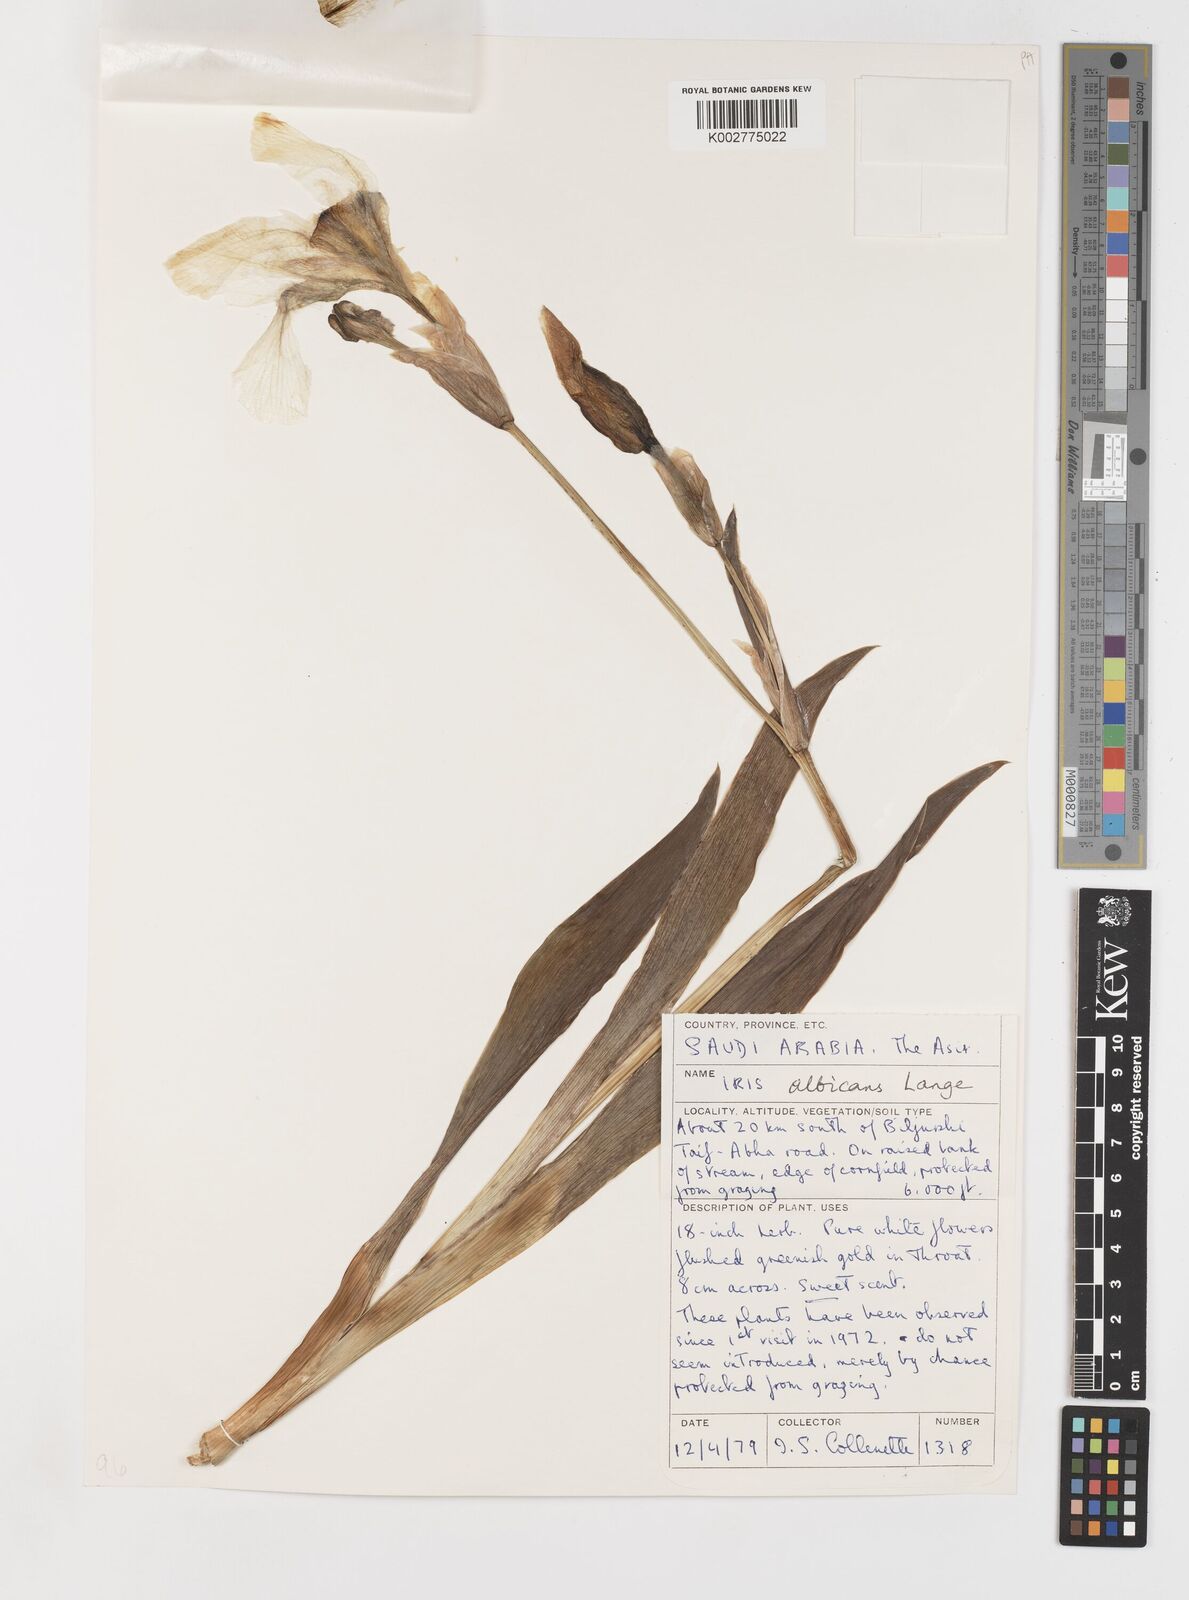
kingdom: Plantae
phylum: Tracheophyta
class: Liliopsida
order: Asparagales
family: Iridaceae
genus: Iris
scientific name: Iris florentina
